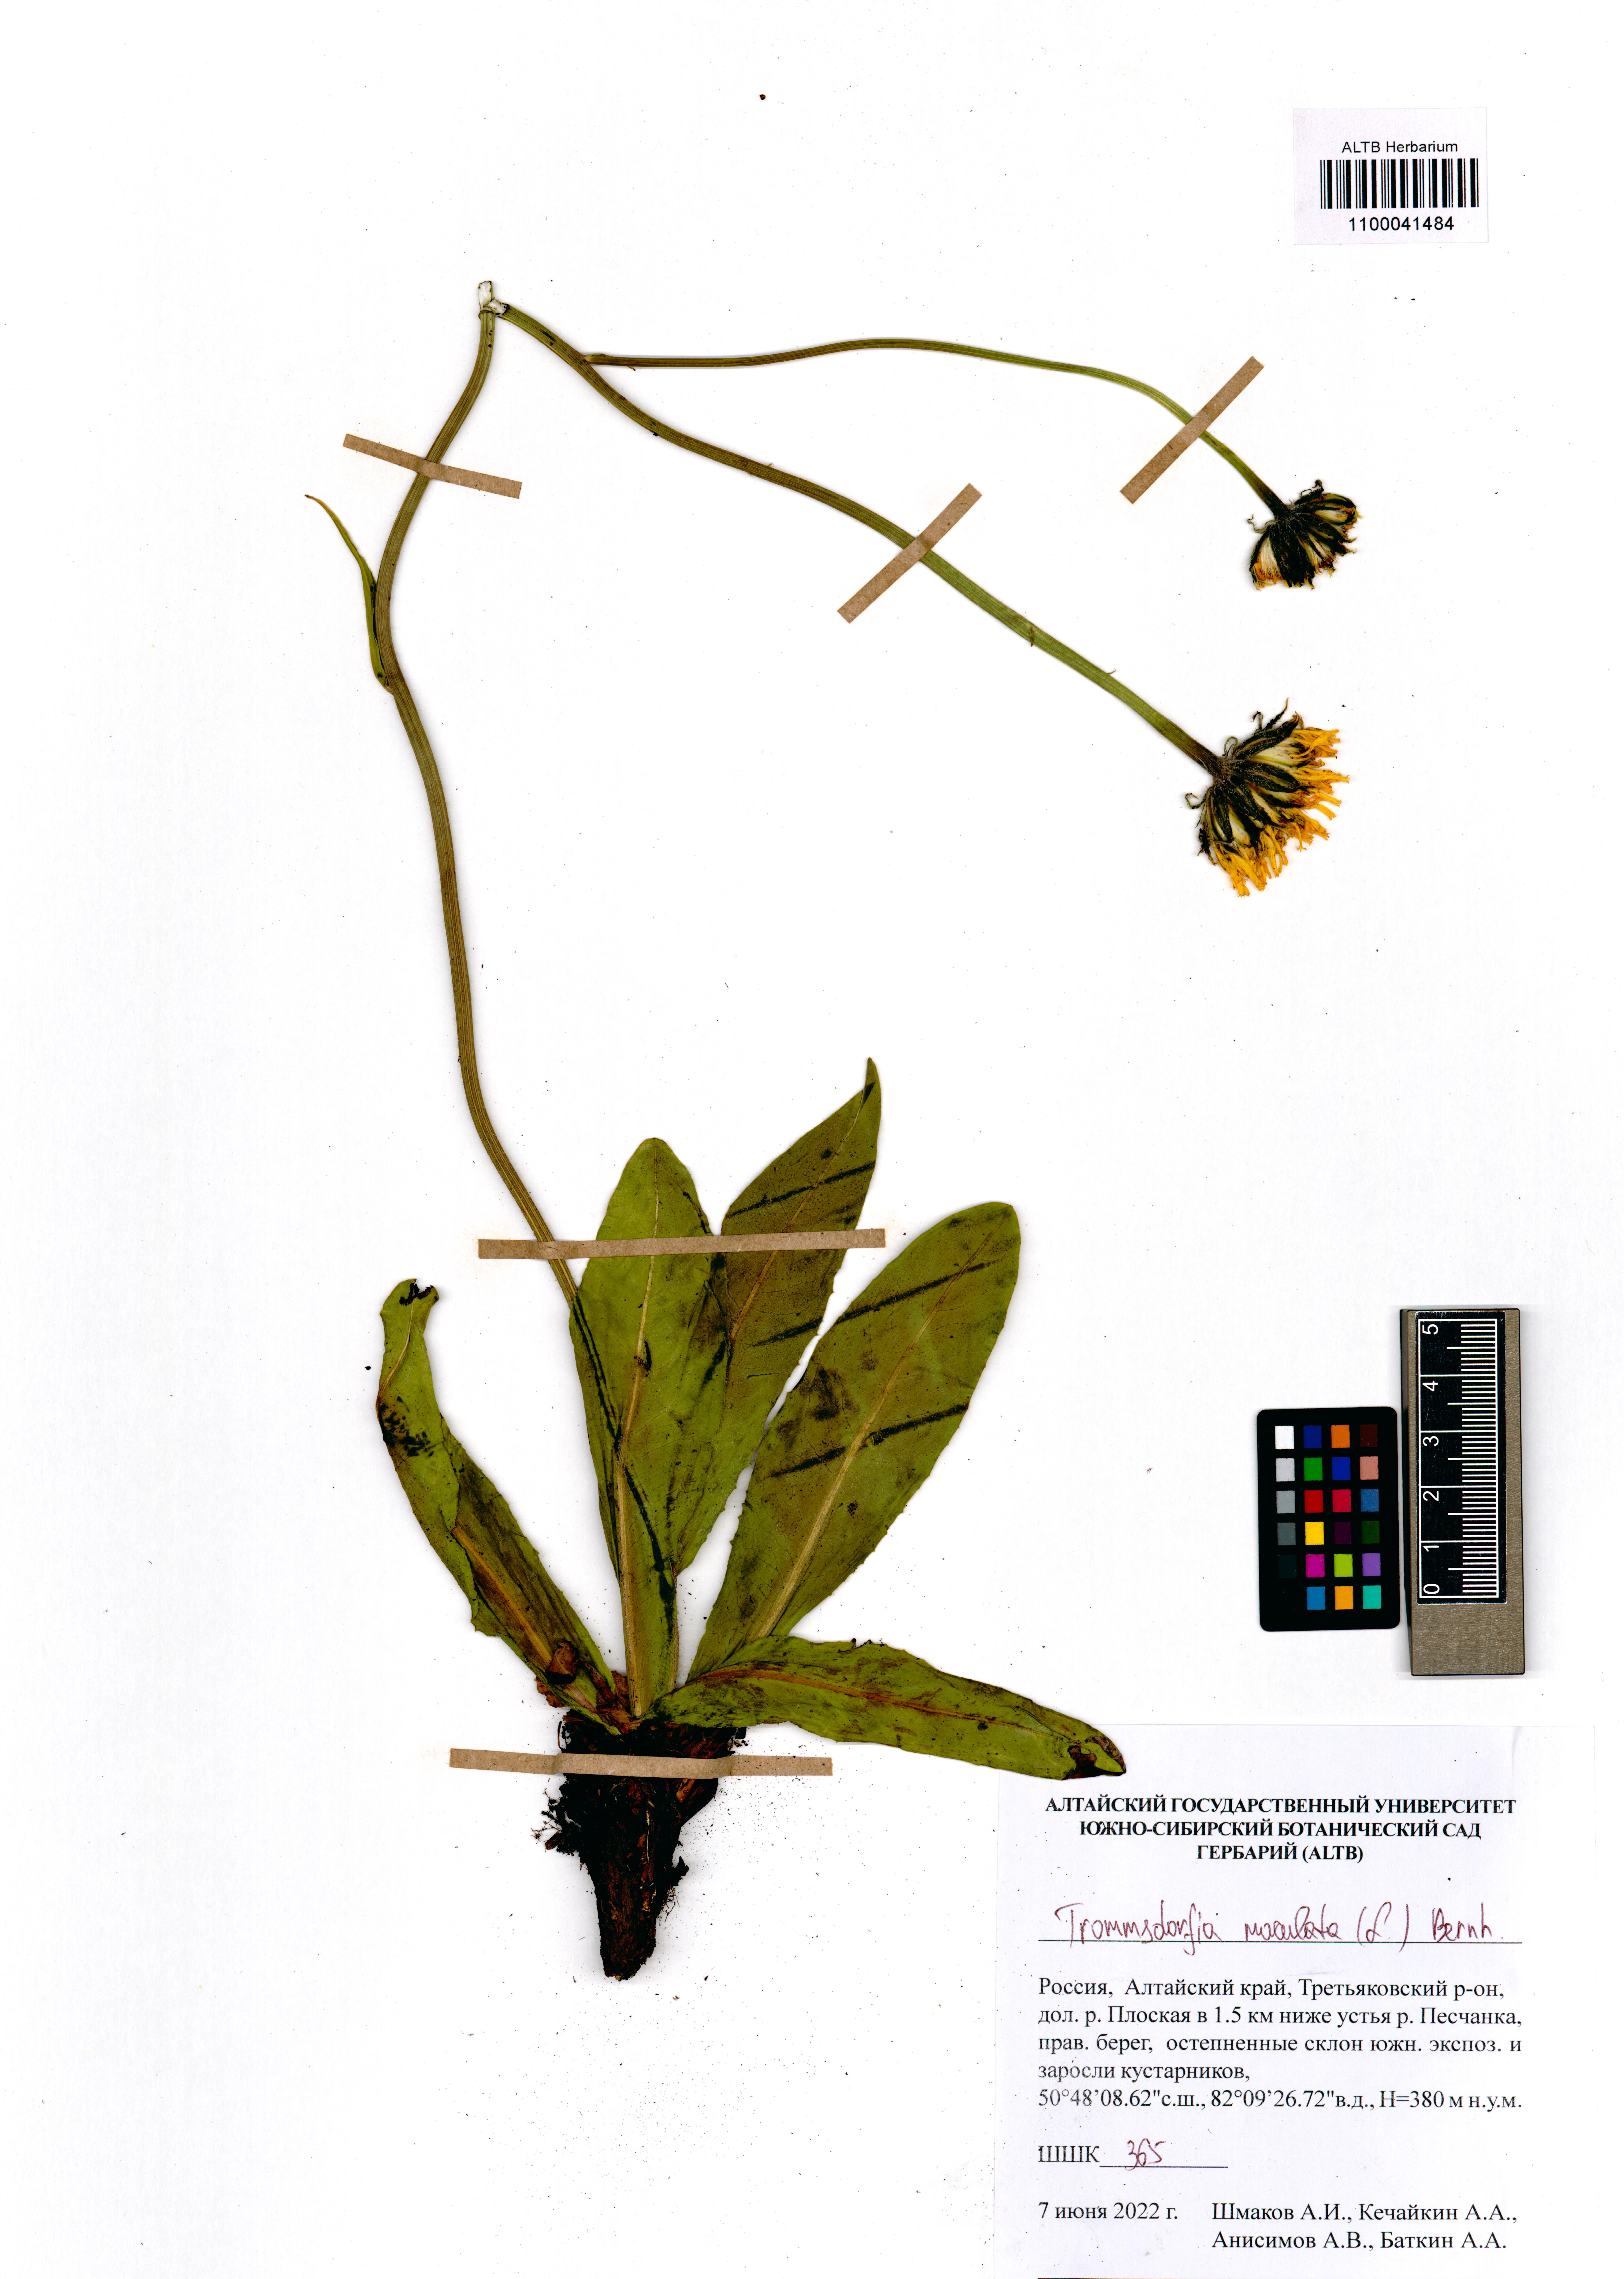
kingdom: Plantae
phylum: Tracheophyta
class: Magnoliopsida
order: Asterales
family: Asteraceae
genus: Trommsdorffia
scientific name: Trommsdorffia maculata
